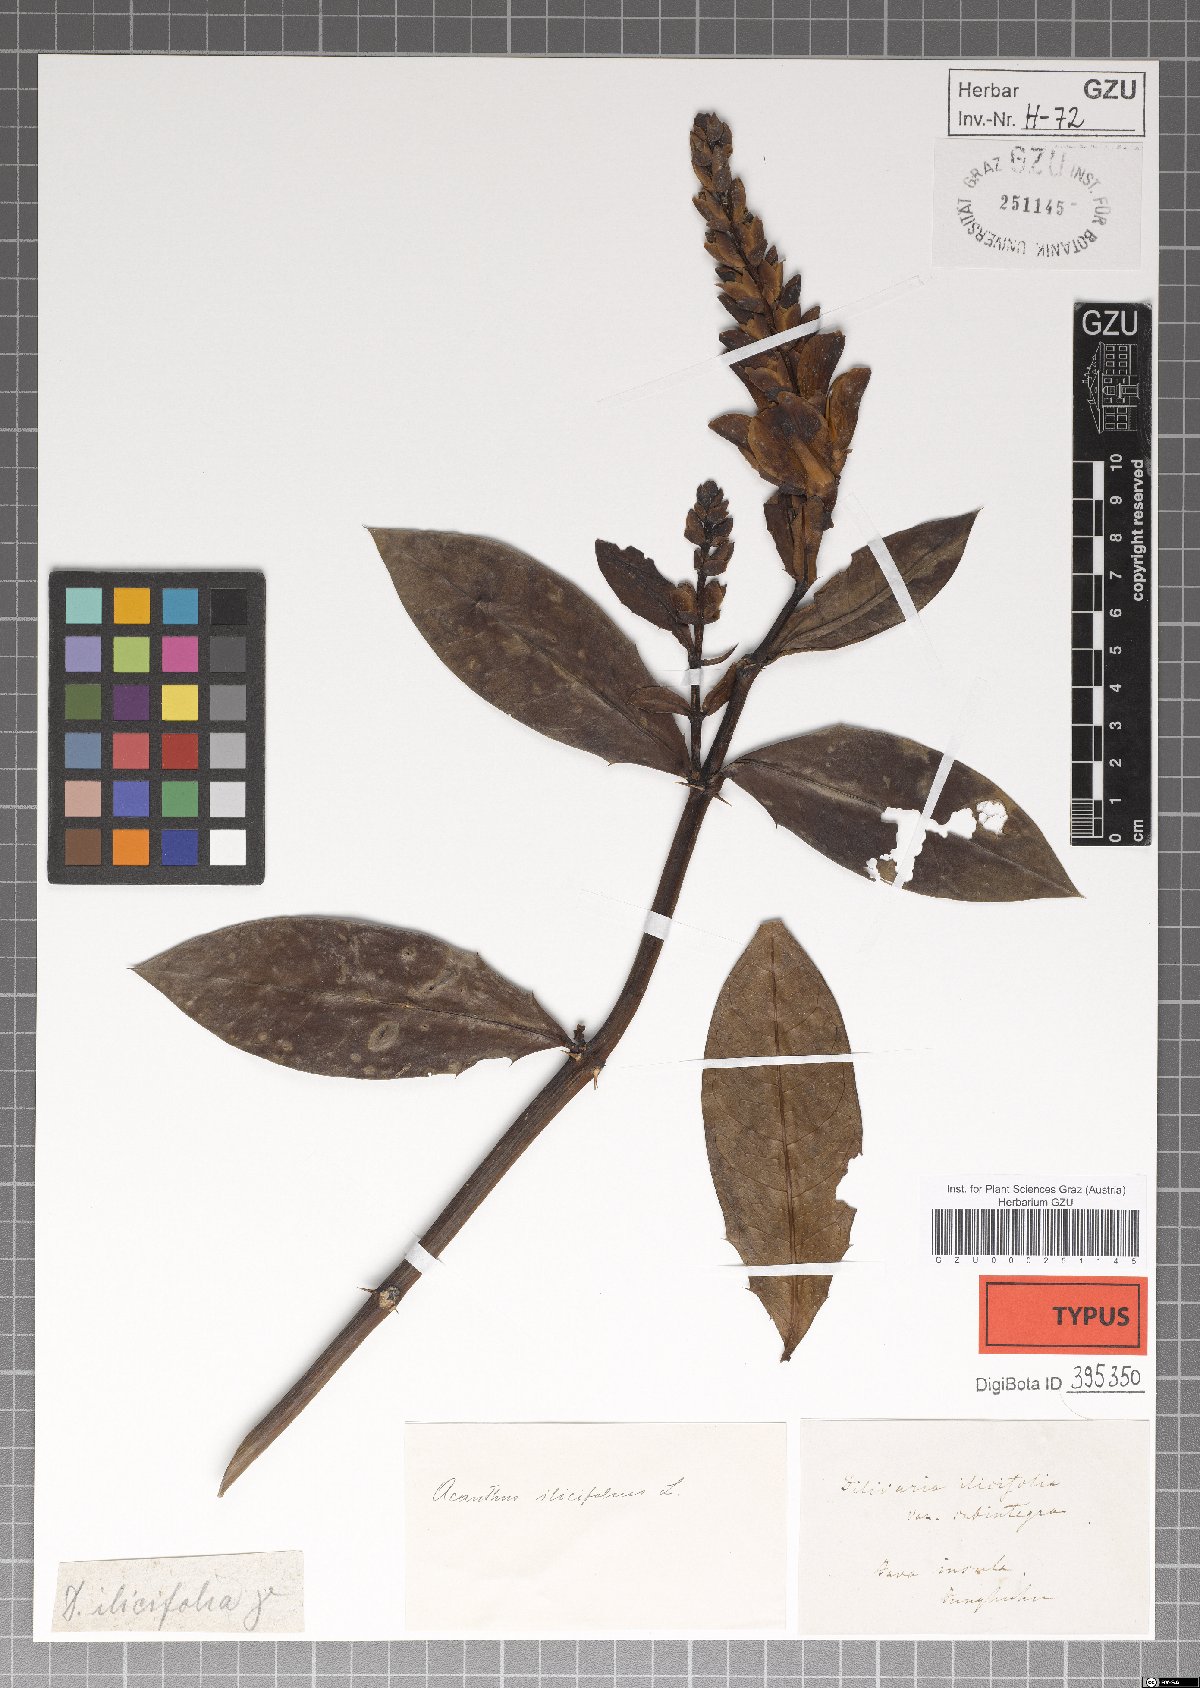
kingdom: Plantae
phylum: Tracheophyta
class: Magnoliopsida
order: Lamiales
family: Acanthaceae
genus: Acanthus
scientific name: Acanthus ilicifolius
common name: Holy mangrove
